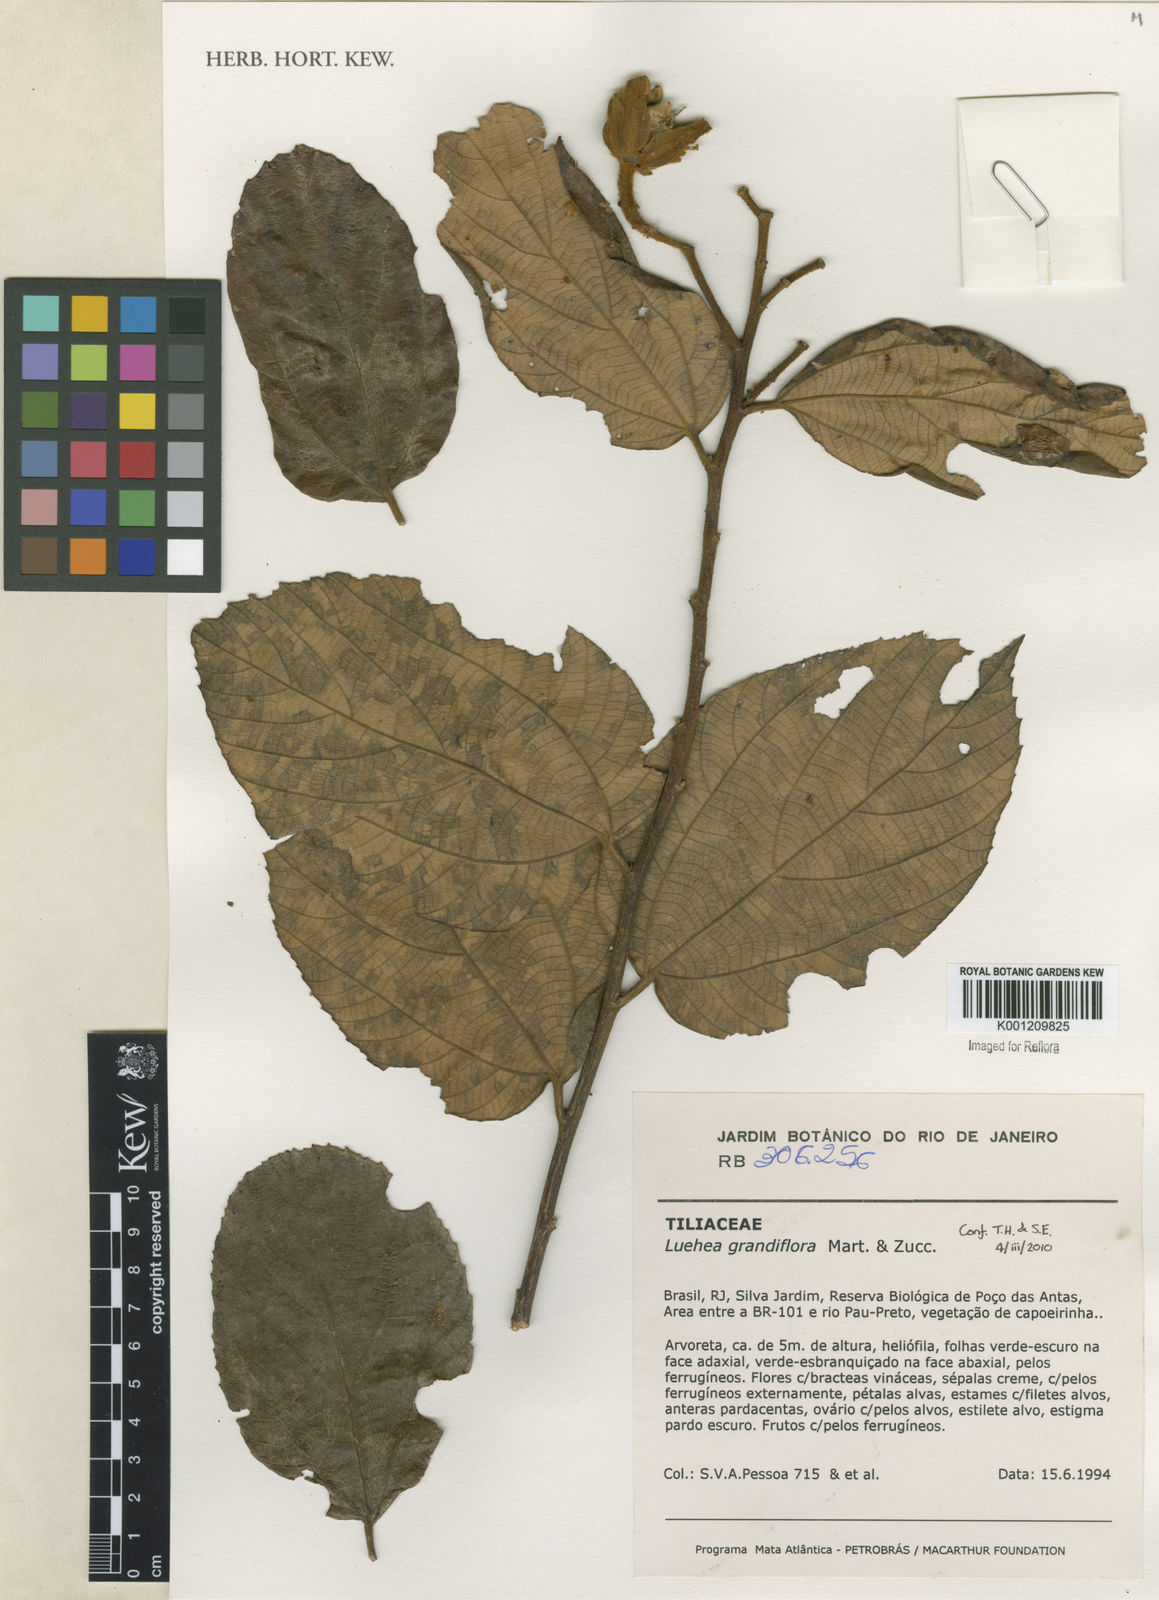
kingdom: Plantae
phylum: Tracheophyta
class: Magnoliopsida
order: Malvales
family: Malvaceae
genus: Luehea
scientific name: Luehea grandiflora
